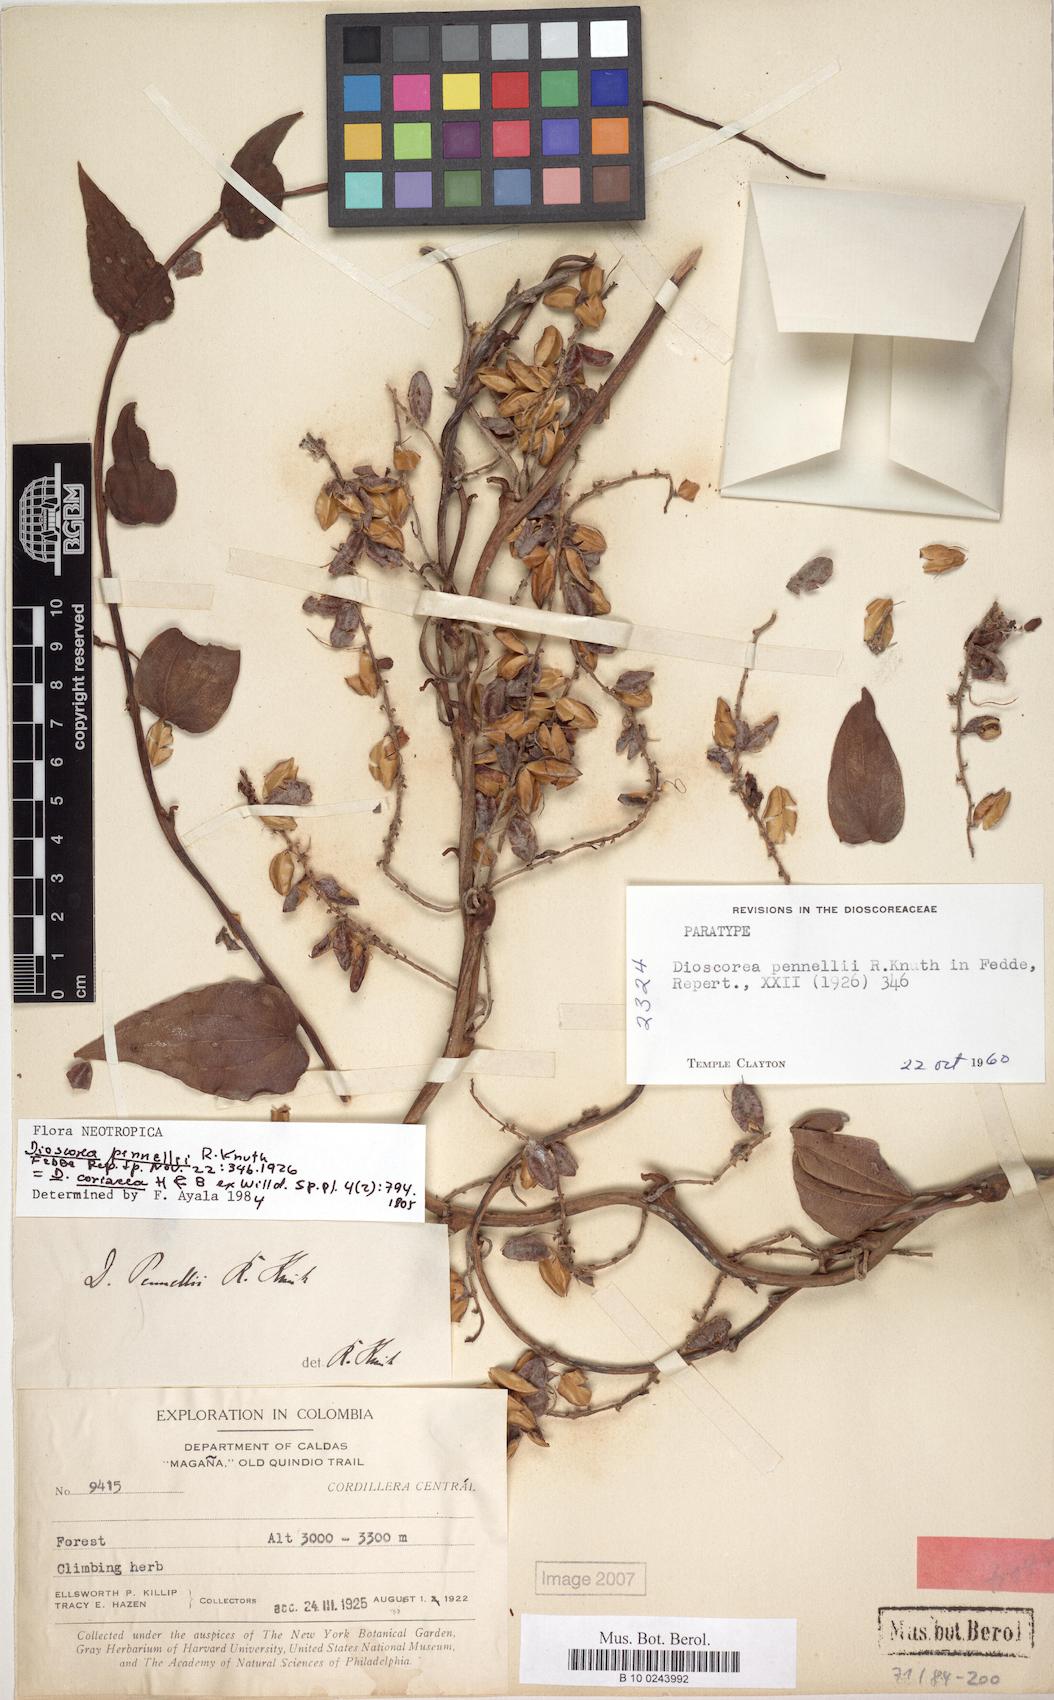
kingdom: Plantae
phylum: Tracheophyta
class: Liliopsida
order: Dioscoreales
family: Dioscoreaceae
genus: Dioscorea
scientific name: Dioscorea coriacea
